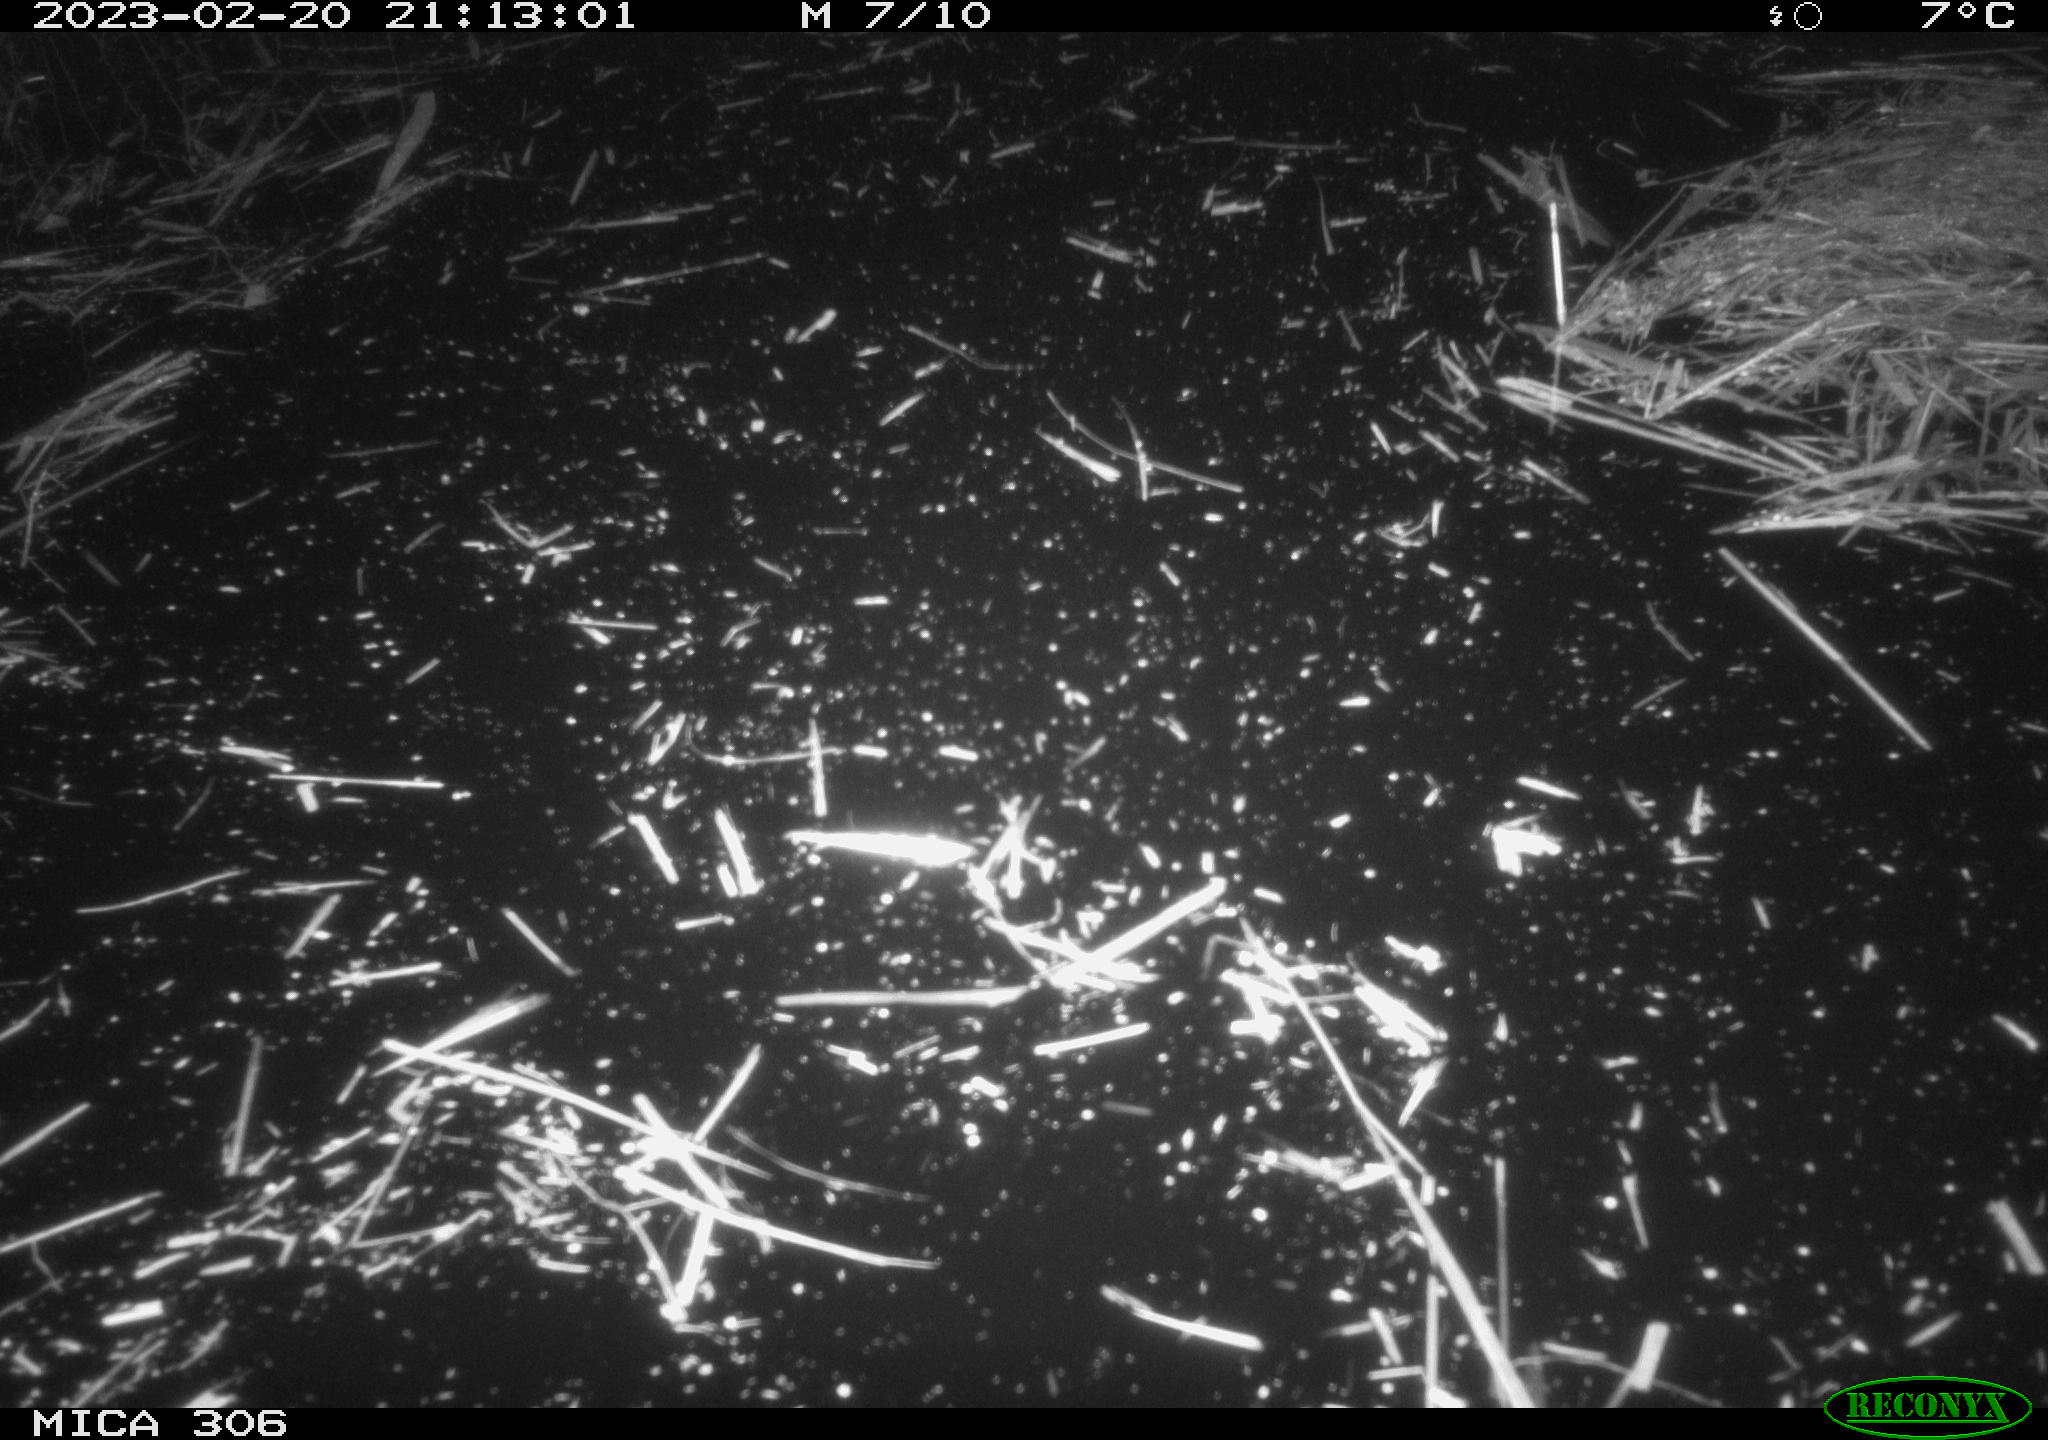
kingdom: Animalia
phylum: Chordata
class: Mammalia
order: Rodentia
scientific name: Rodentia
